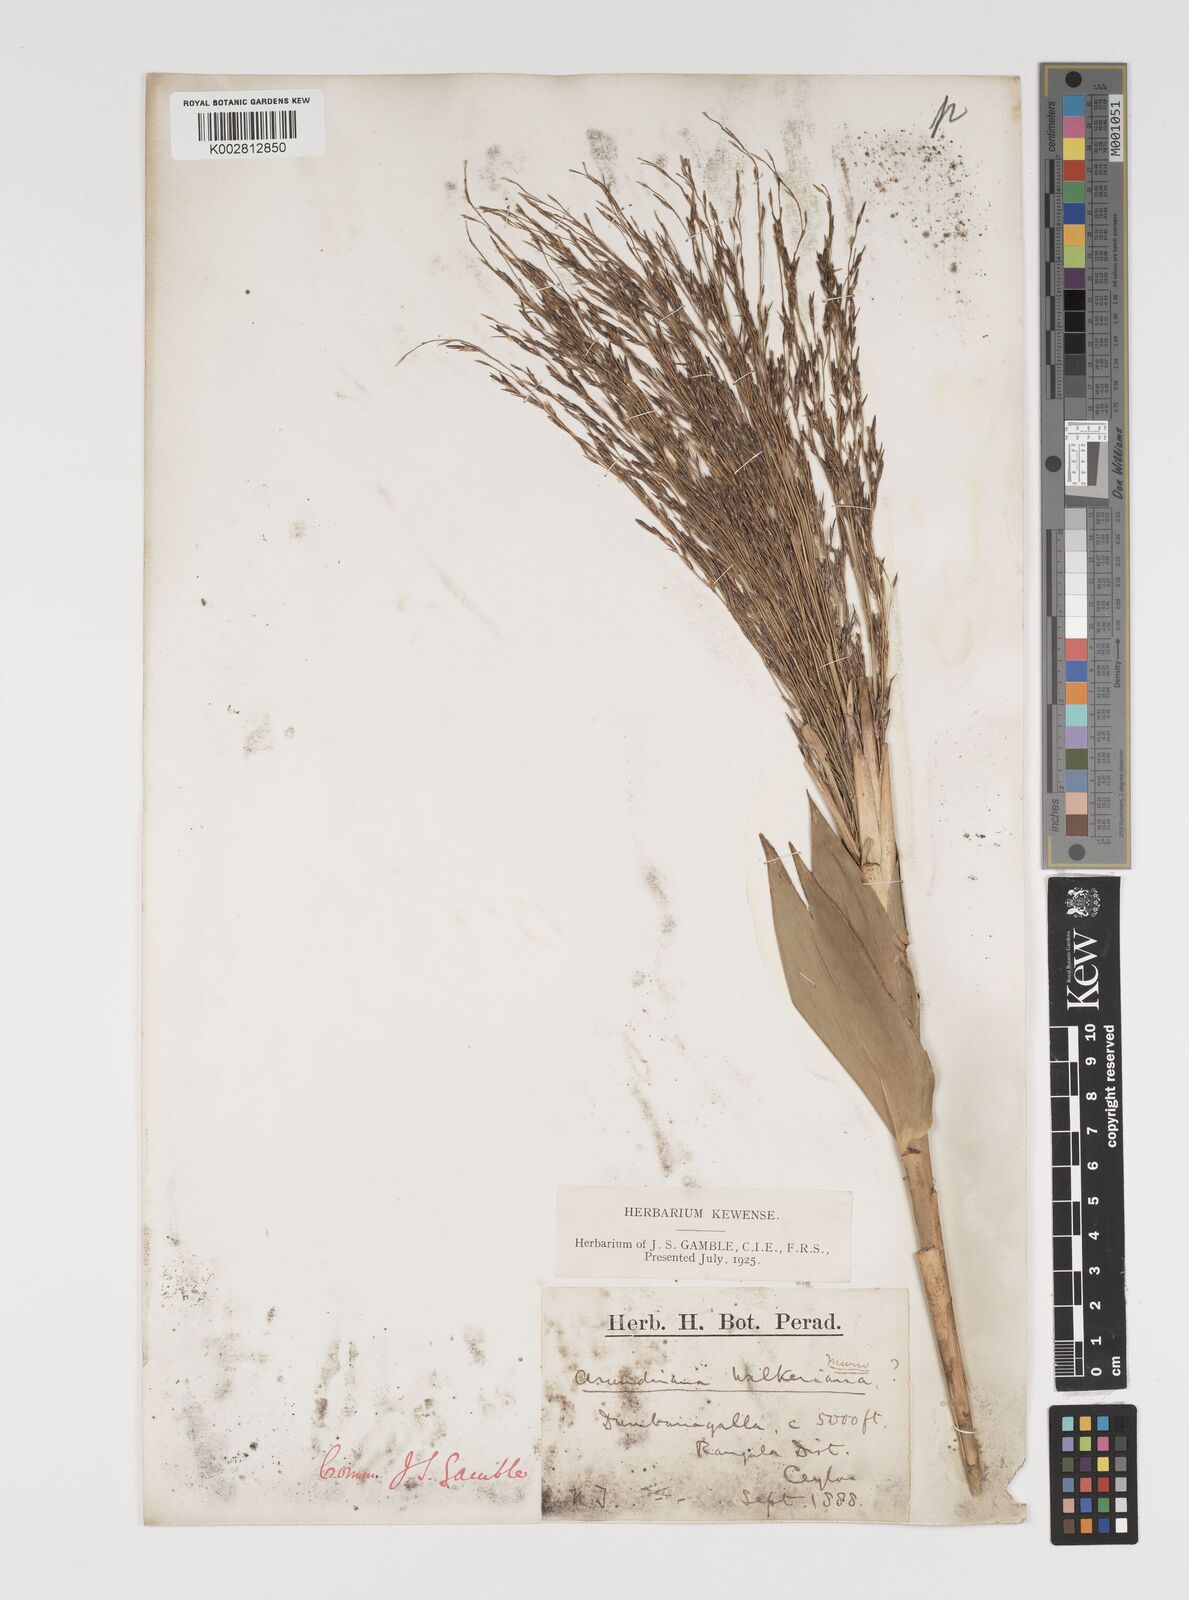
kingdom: Plantae
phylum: Tracheophyta
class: Liliopsida
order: Poales
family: Poaceae
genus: Kuruna
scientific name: Kuruna walkeriana
